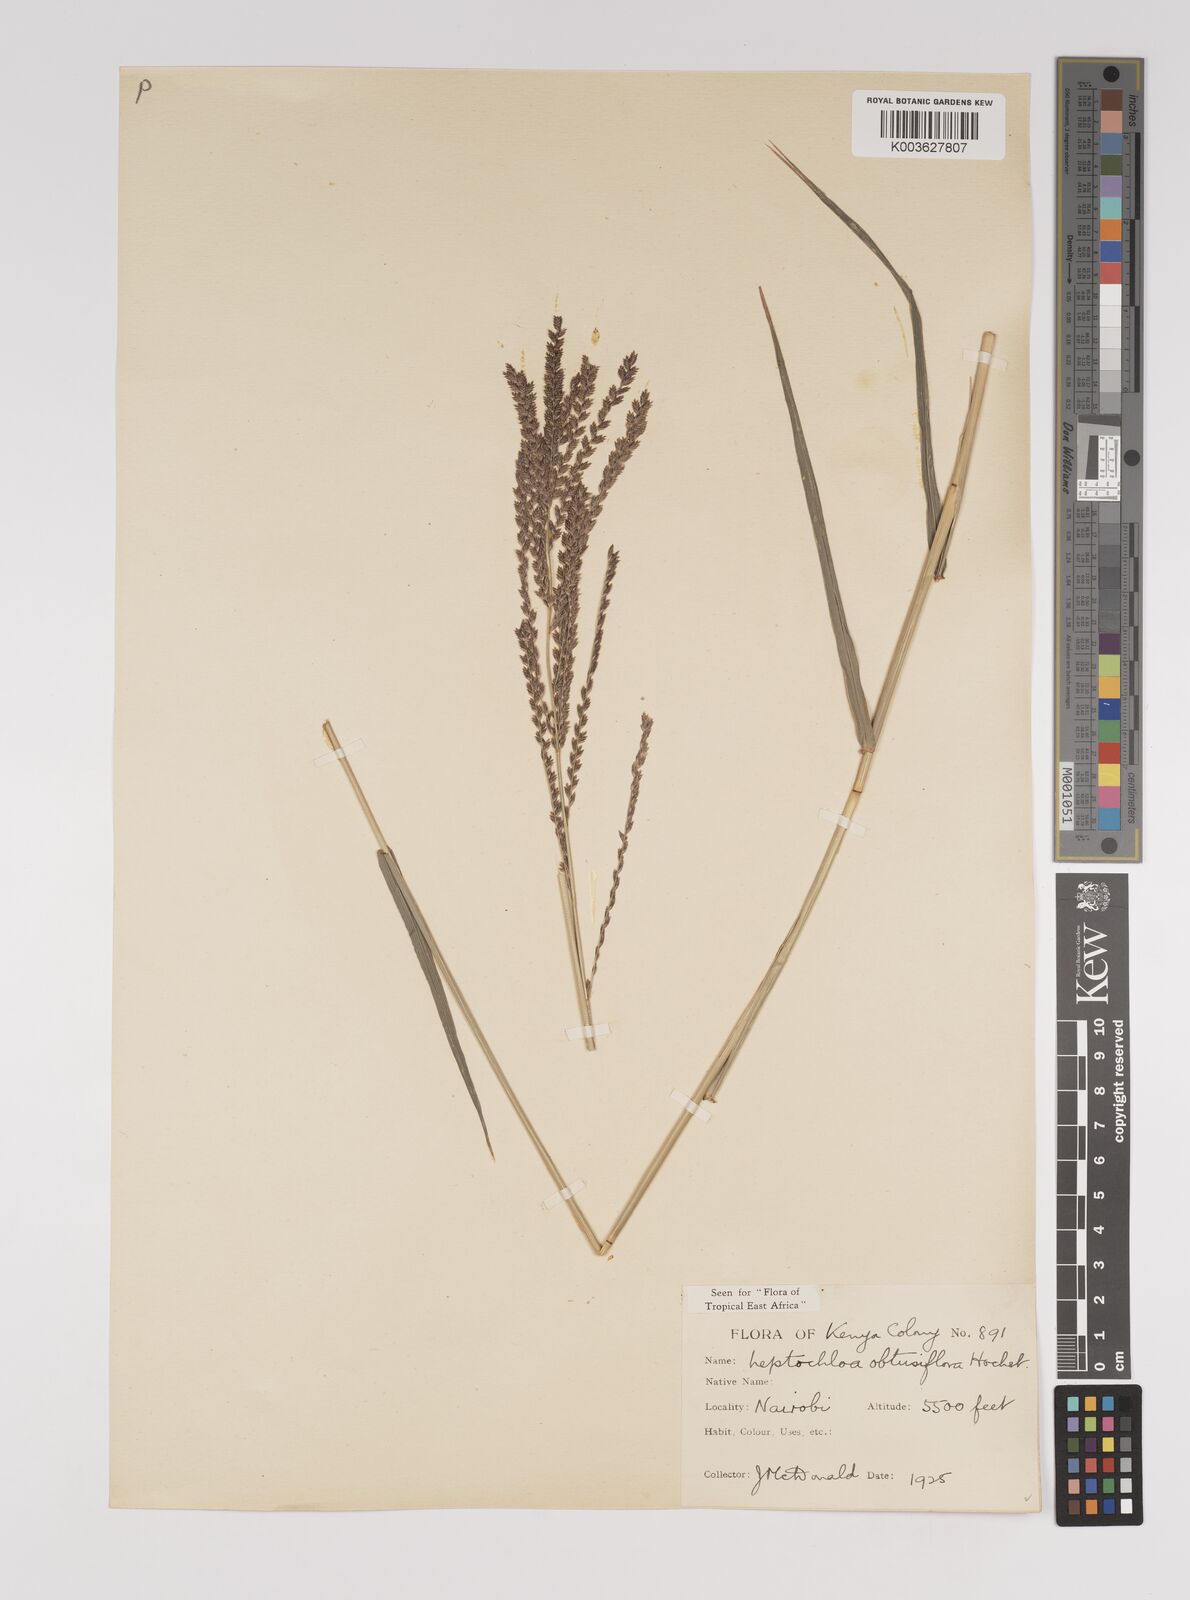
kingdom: Plantae
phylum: Tracheophyta
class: Liliopsida
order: Poales
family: Poaceae
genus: Disakisperma
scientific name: Disakisperma obtusiflorum
